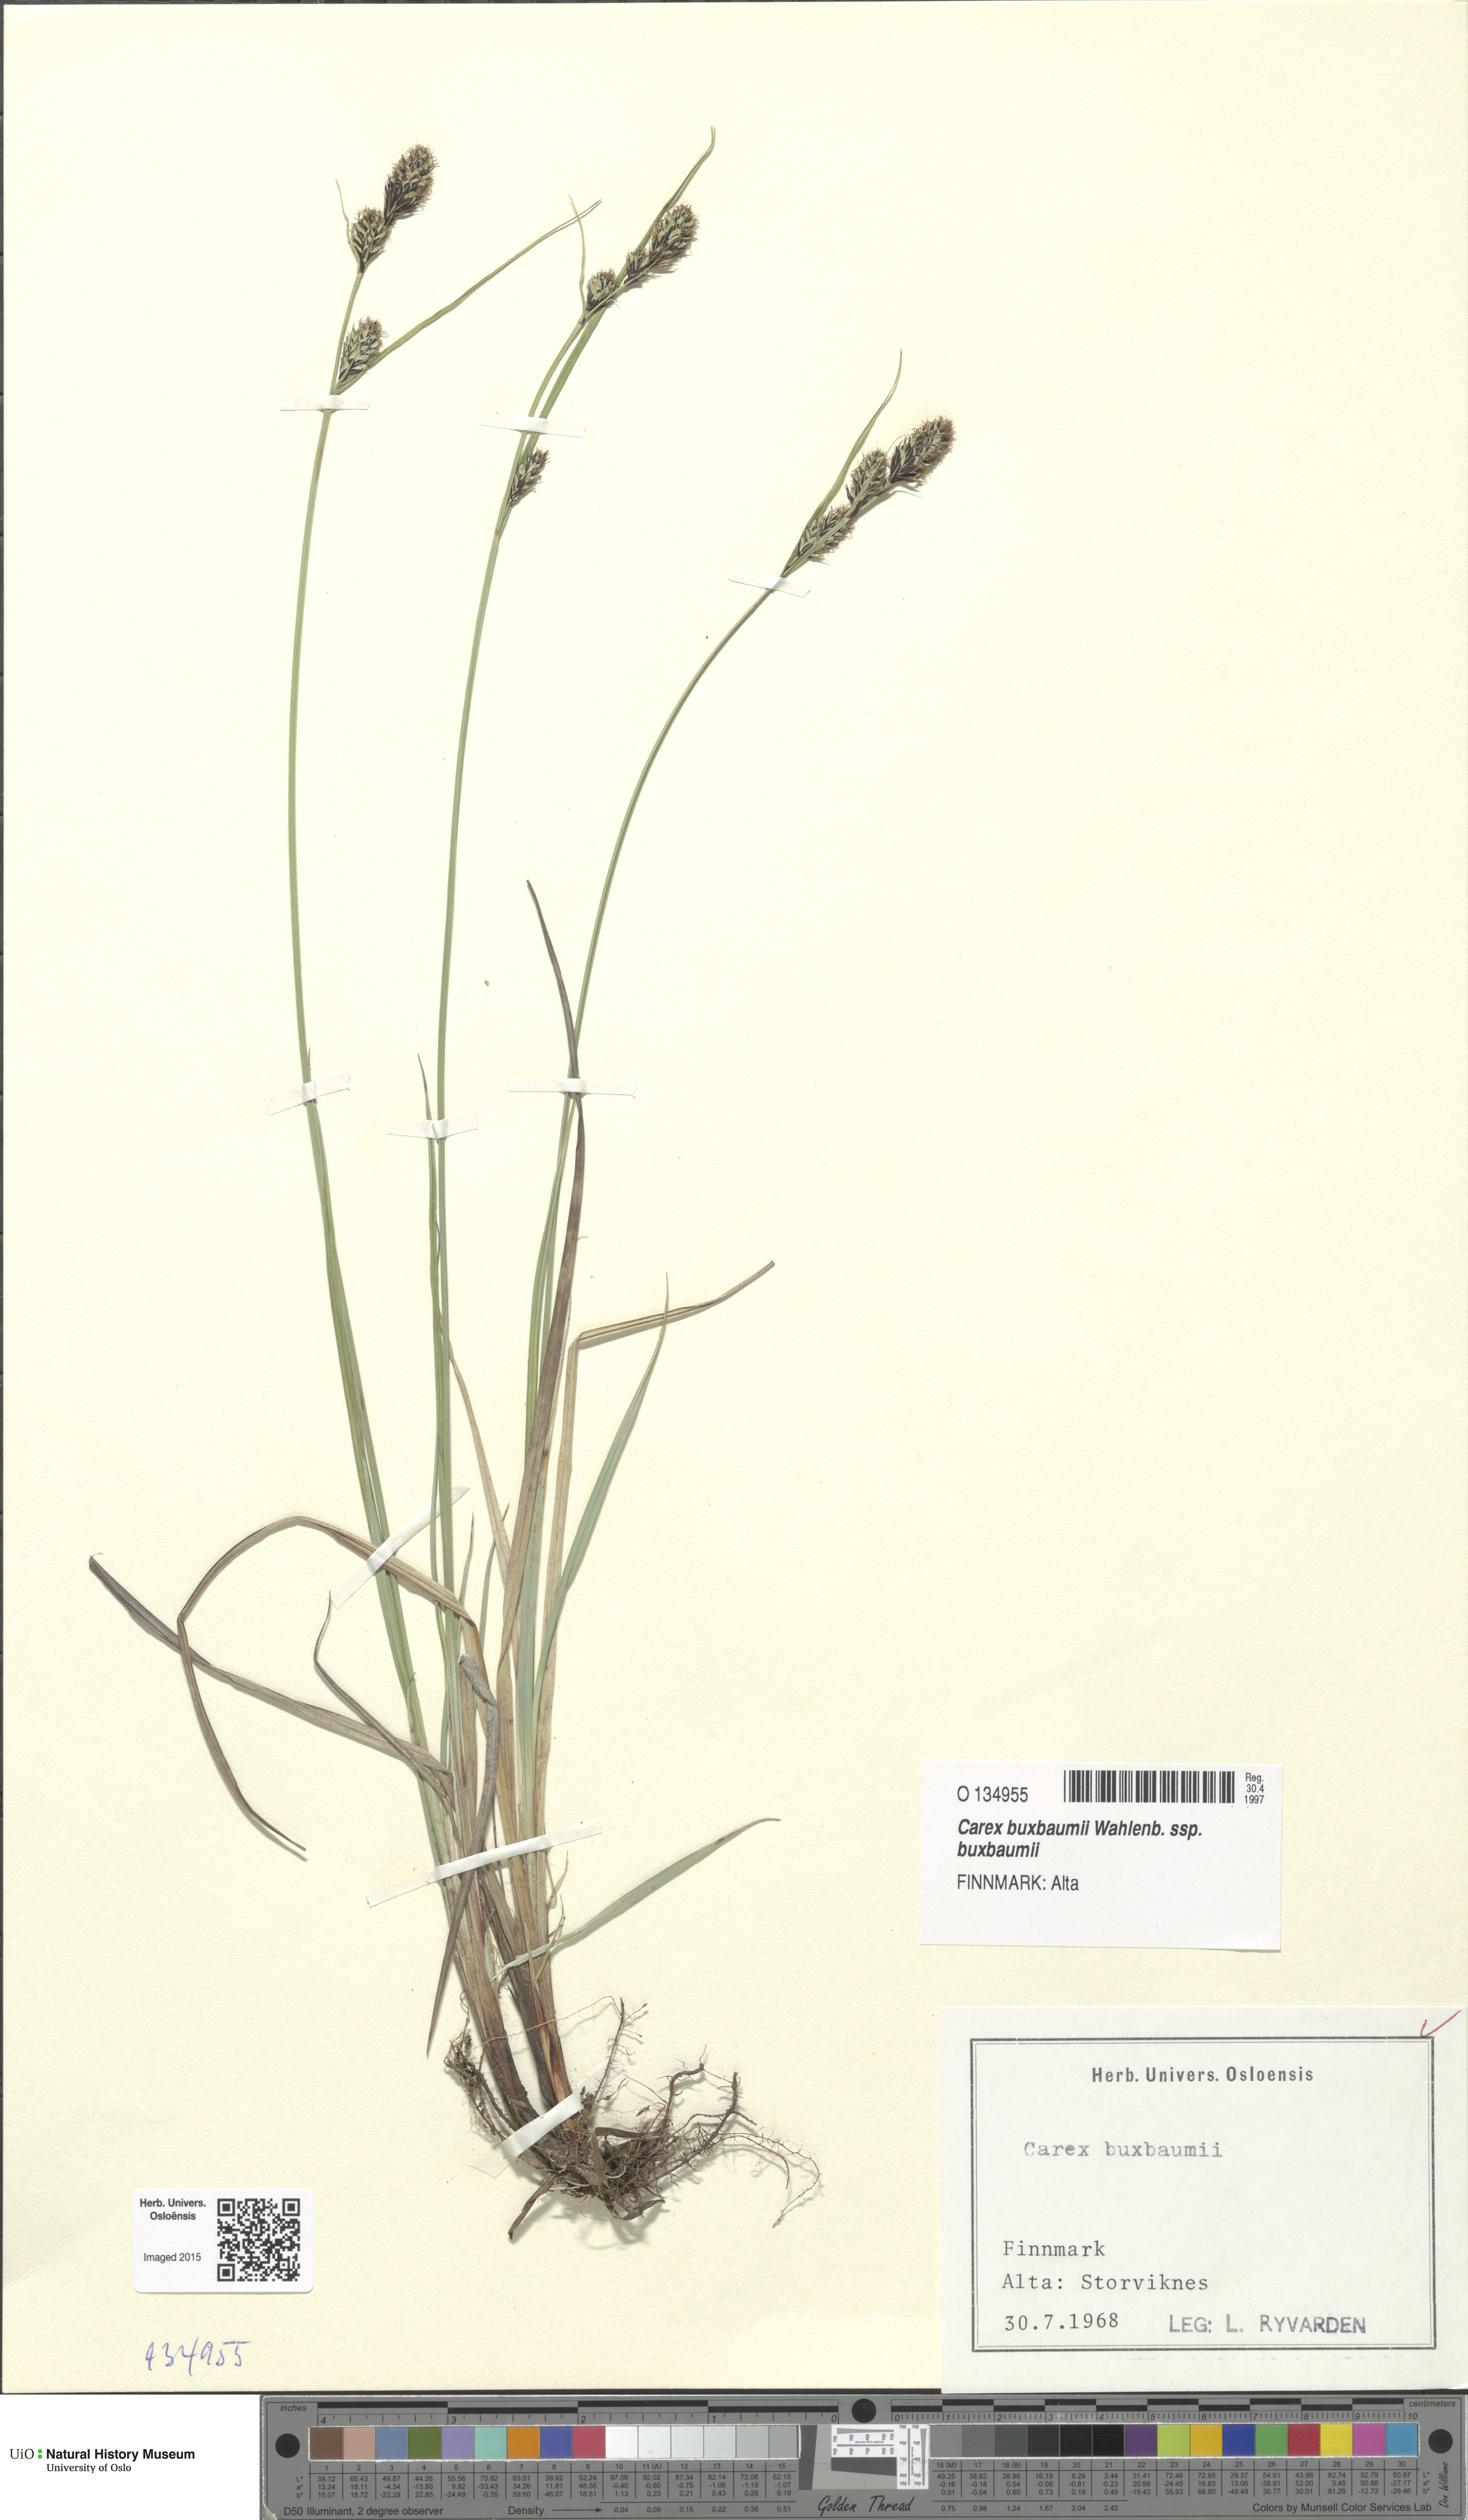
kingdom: Plantae
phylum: Tracheophyta
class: Liliopsida
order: Poales
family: Cyperaceae
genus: Carex
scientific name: Carex buxbaumii
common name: Club sedge
